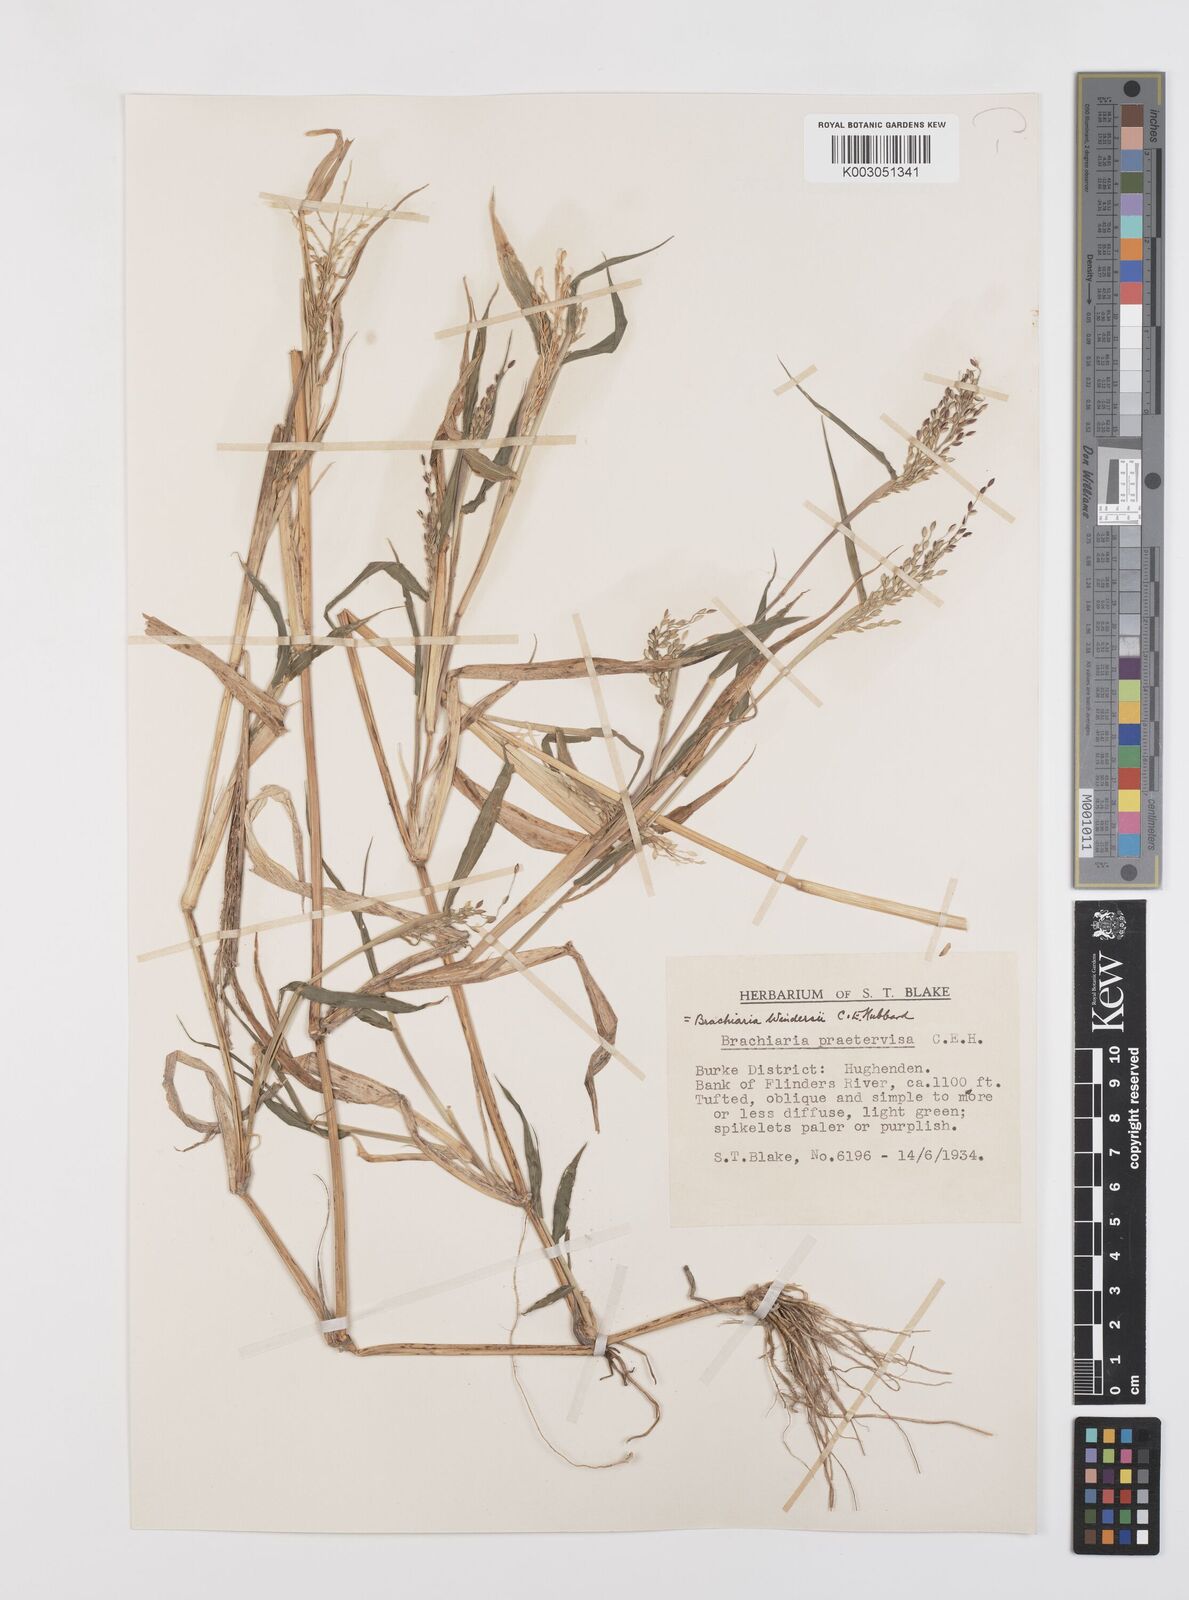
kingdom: Plantae
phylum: Tracheophyta
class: Liliopsida
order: Poales
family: Poaceae
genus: Urochloa
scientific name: Urochloa whiteana
